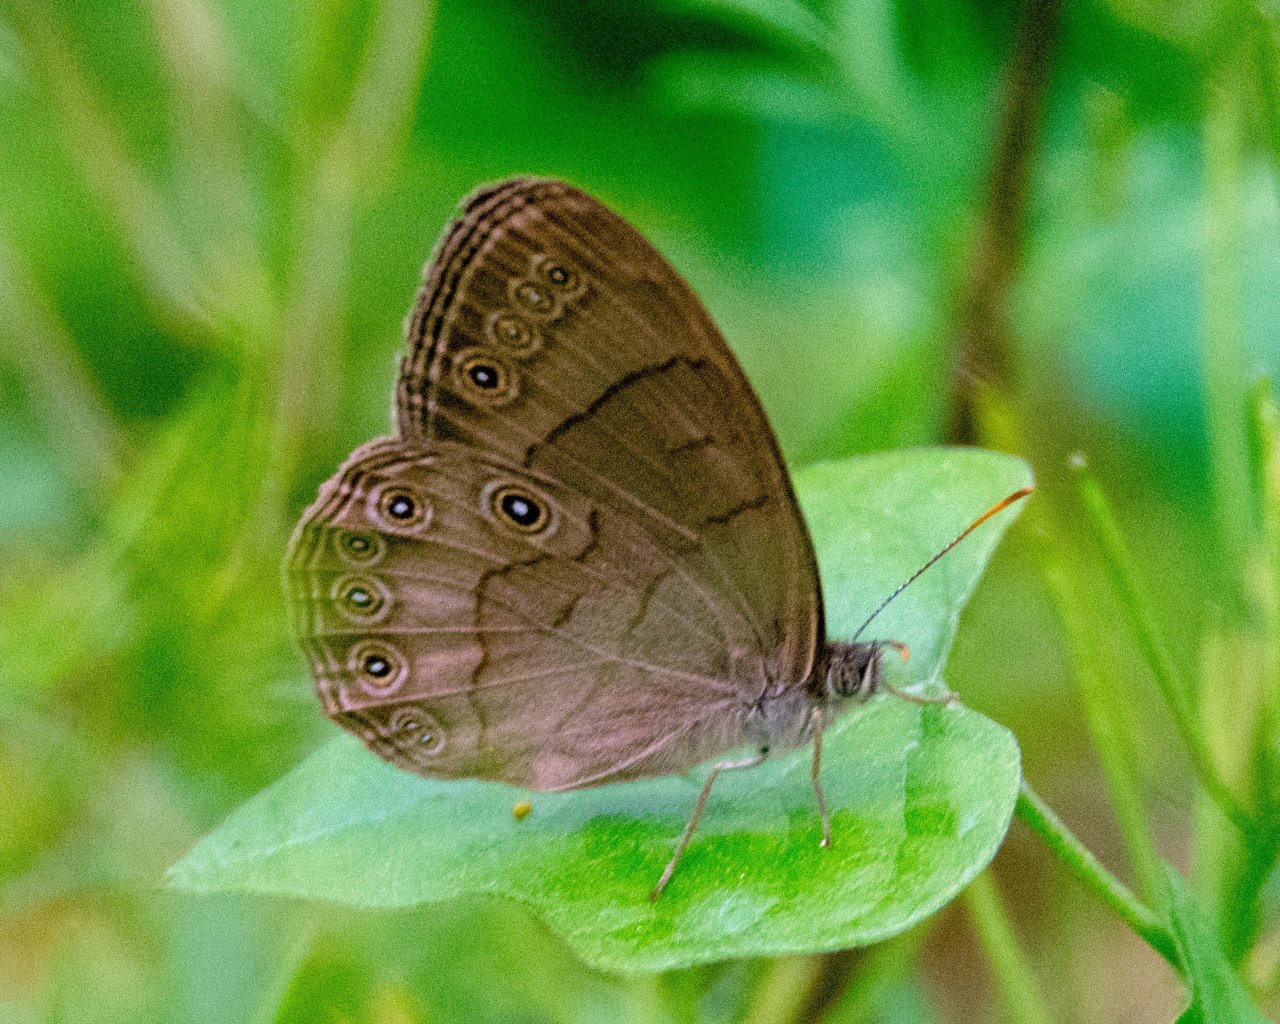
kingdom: Animalia
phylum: Arthropoda
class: Insecta
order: Lepidoptera
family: Nymphalidae
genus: Lethe
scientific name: Lethe eurydice
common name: Appalachian Eyed Brown
